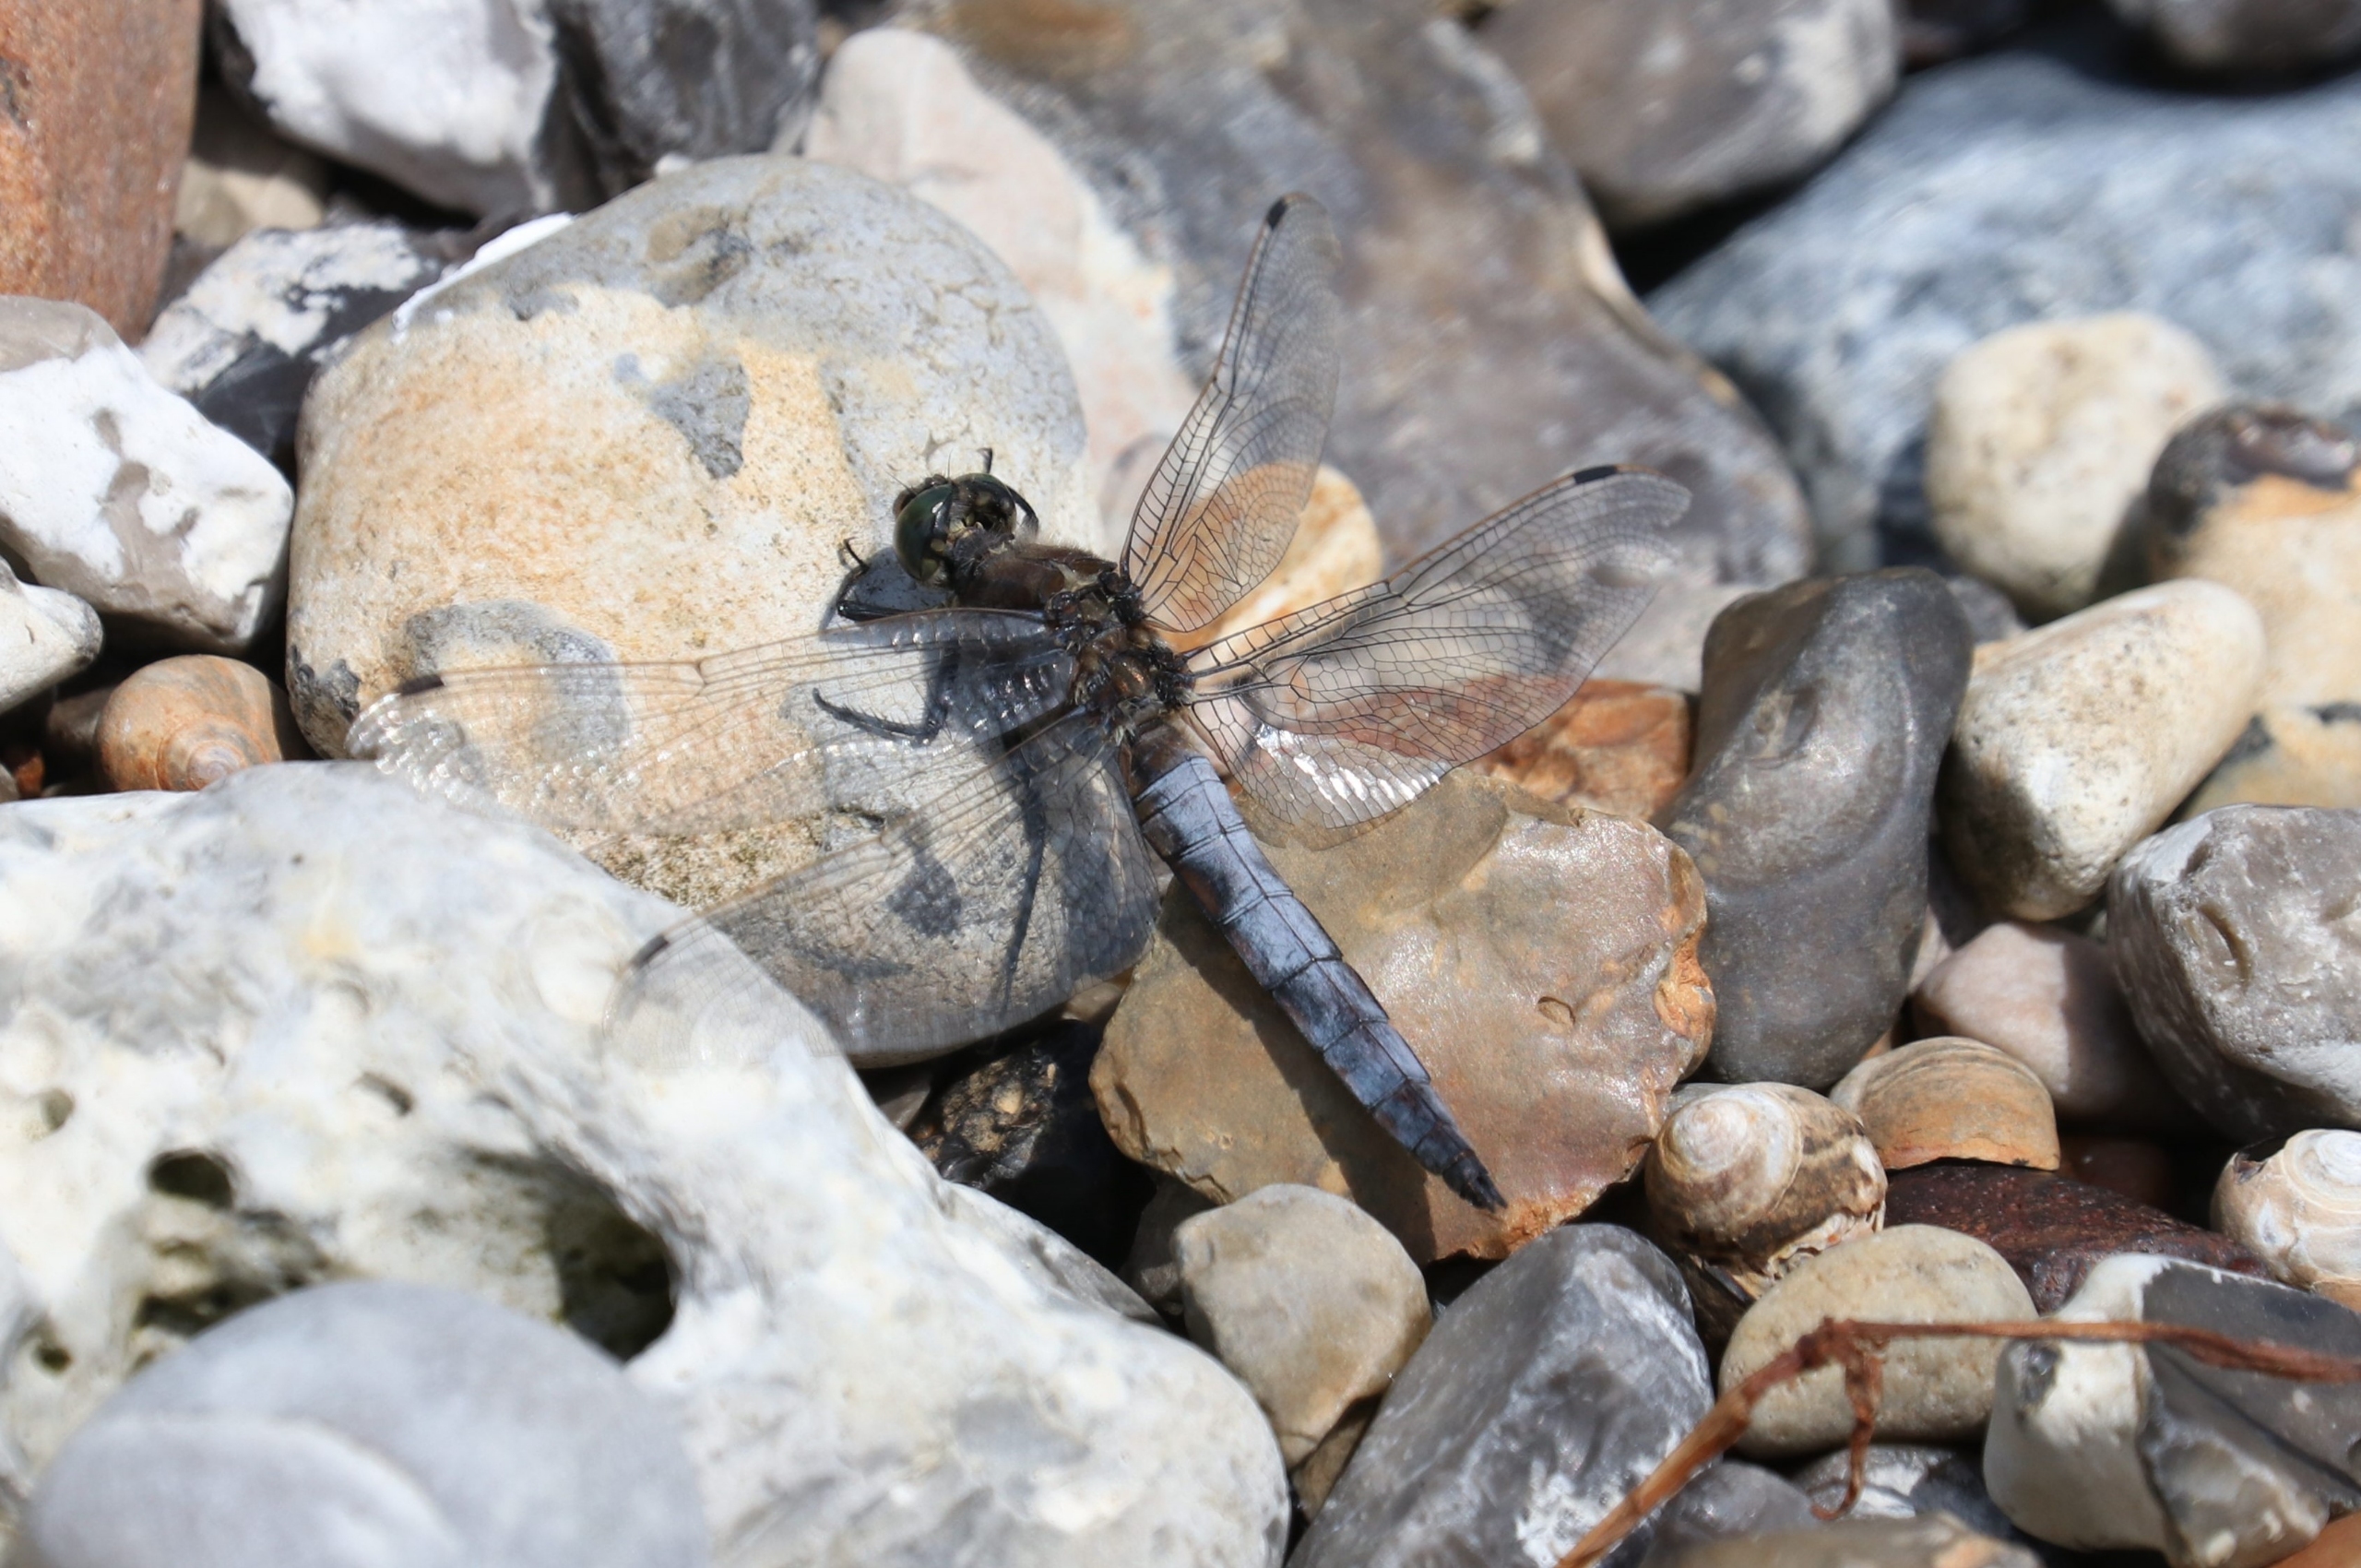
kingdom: Animalia
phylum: Arthropoda
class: Insecta
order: Odonata
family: Libellulidae
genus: Orthetrum
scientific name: Orthetrum cancellatum
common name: Stor blåpil
